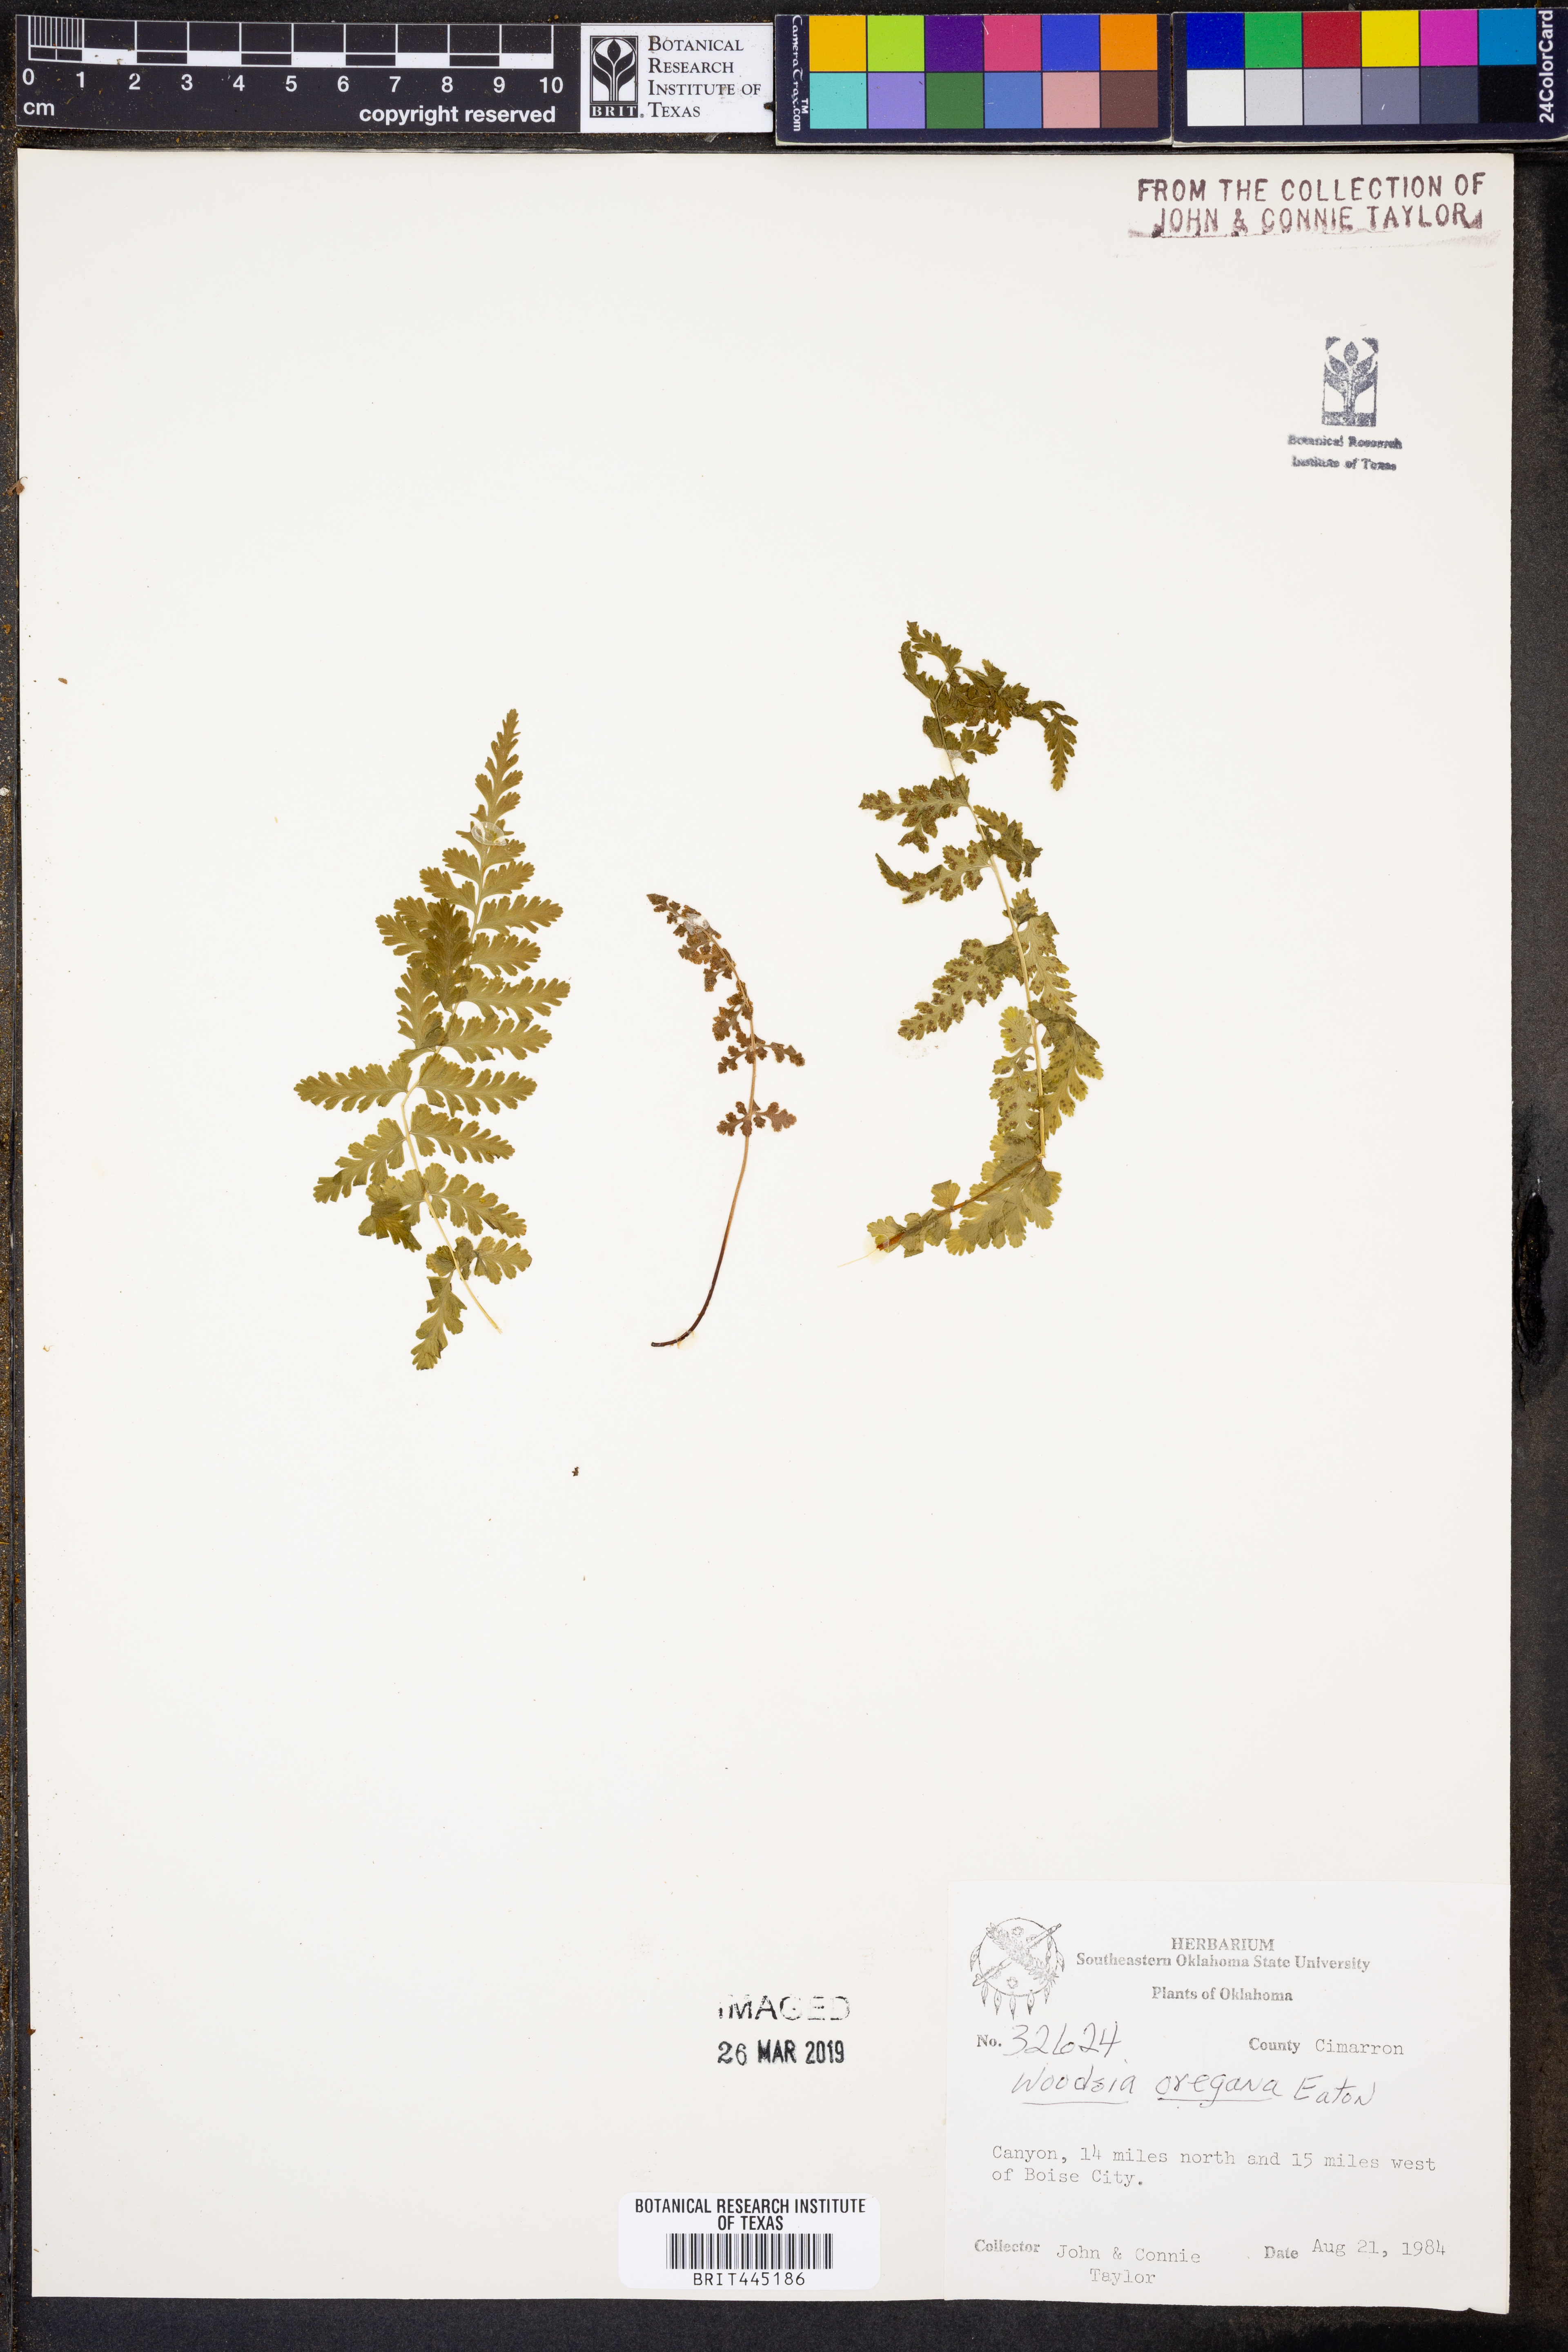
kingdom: Plantae
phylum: Tracheophyta
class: Polypodiopsida
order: Polypodiales
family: Woodsiaceae
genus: Physematium
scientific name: Physematium oreganum
